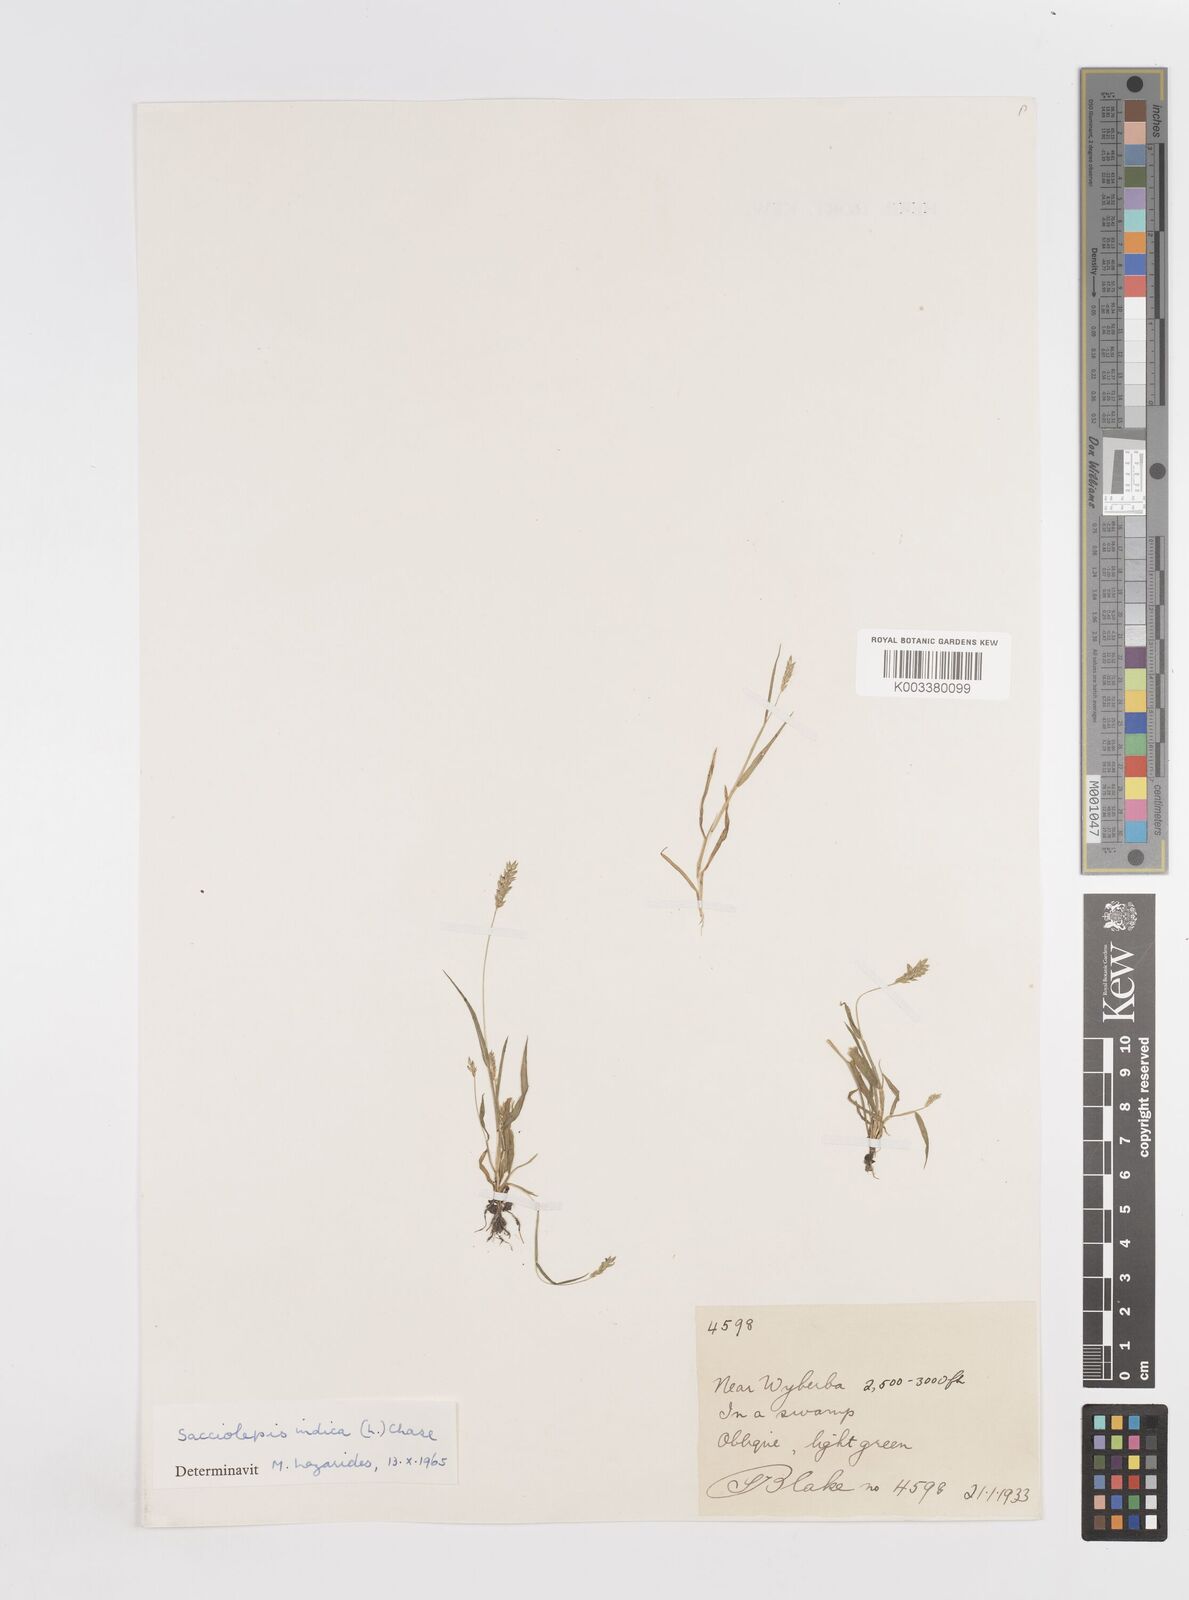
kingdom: Plantae
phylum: Tracheophyta
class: Liliopsida
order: Poales
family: Poaceae
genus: Sacciolepis
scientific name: Sacciolepis indica
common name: Glenwoodgrass
